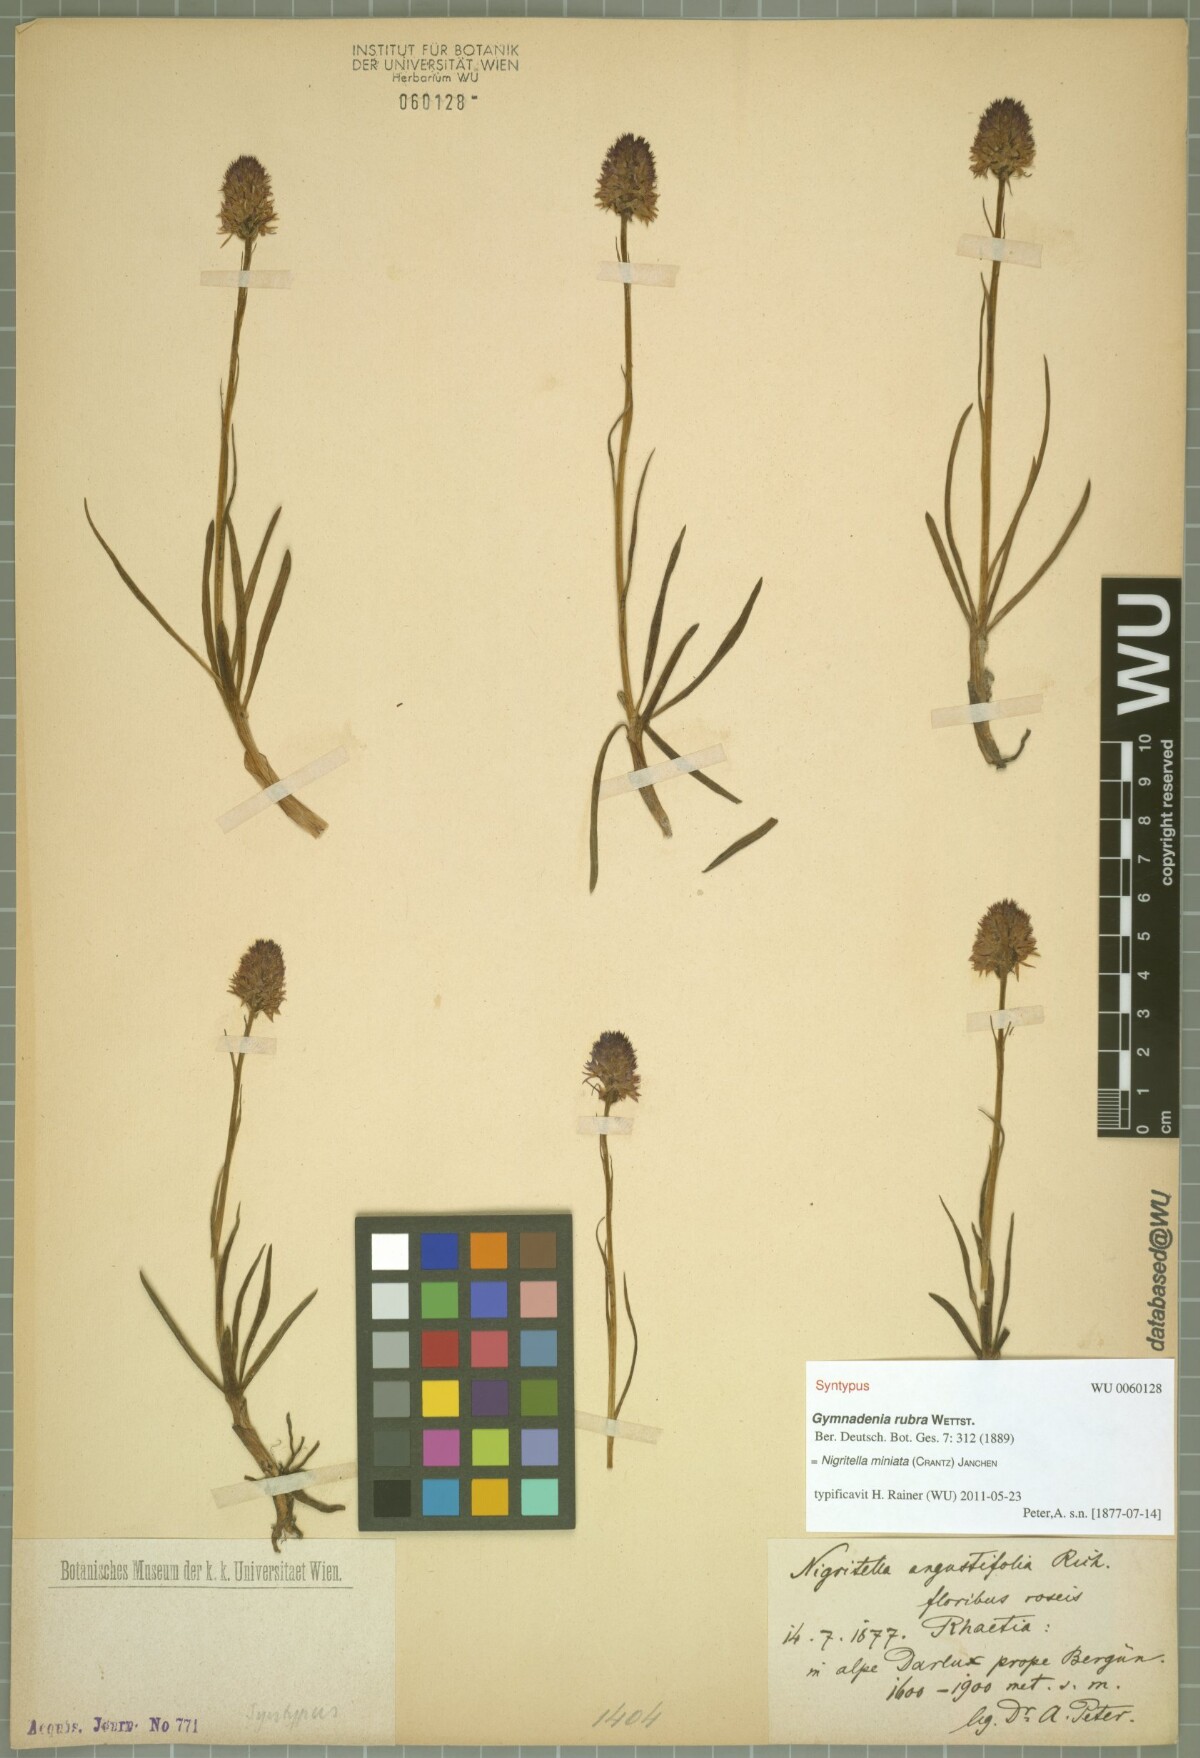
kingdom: Plantae
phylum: Tracheophyta
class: Liliopsida
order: Asparagales
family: Orchidaceae
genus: Gymnadenia
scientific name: Gymnadenia miniata
